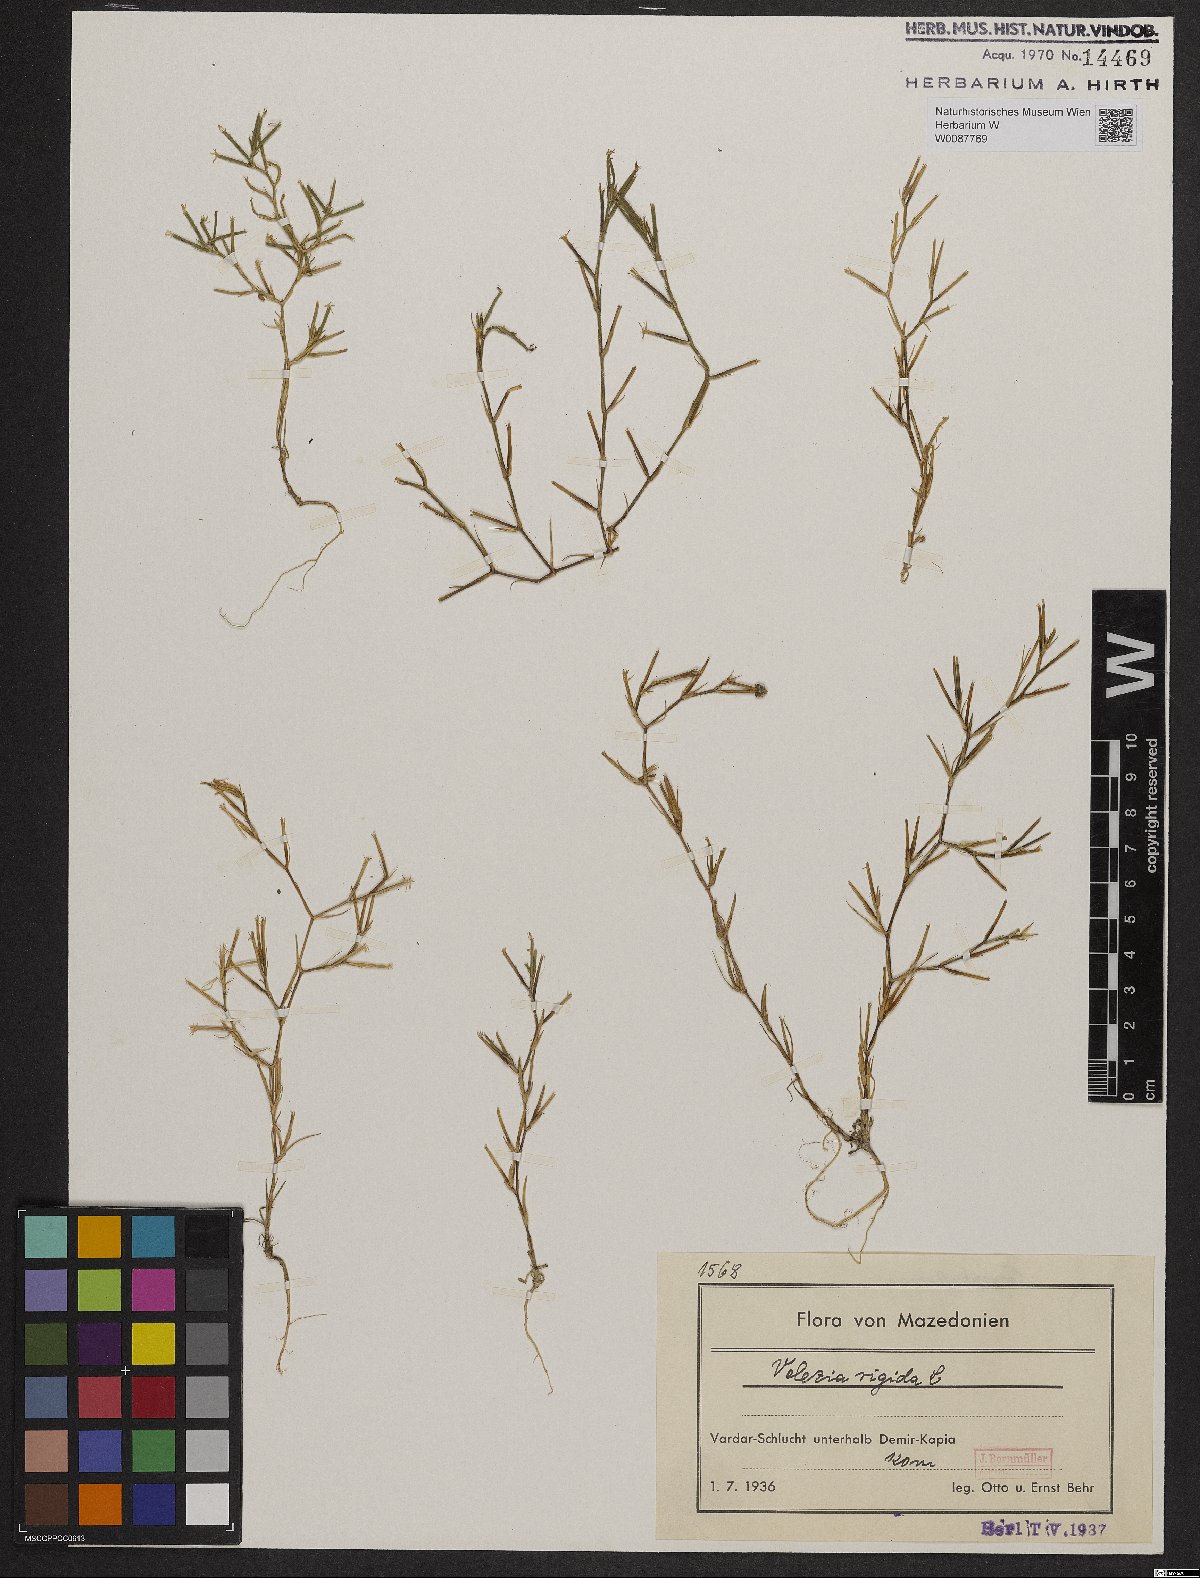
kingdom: Plantae
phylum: Tracheophyta
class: Magnoliopsida
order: Caryophyllales
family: Caryophyllaceae
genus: Dianthus
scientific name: Dianthus nudiflorus
